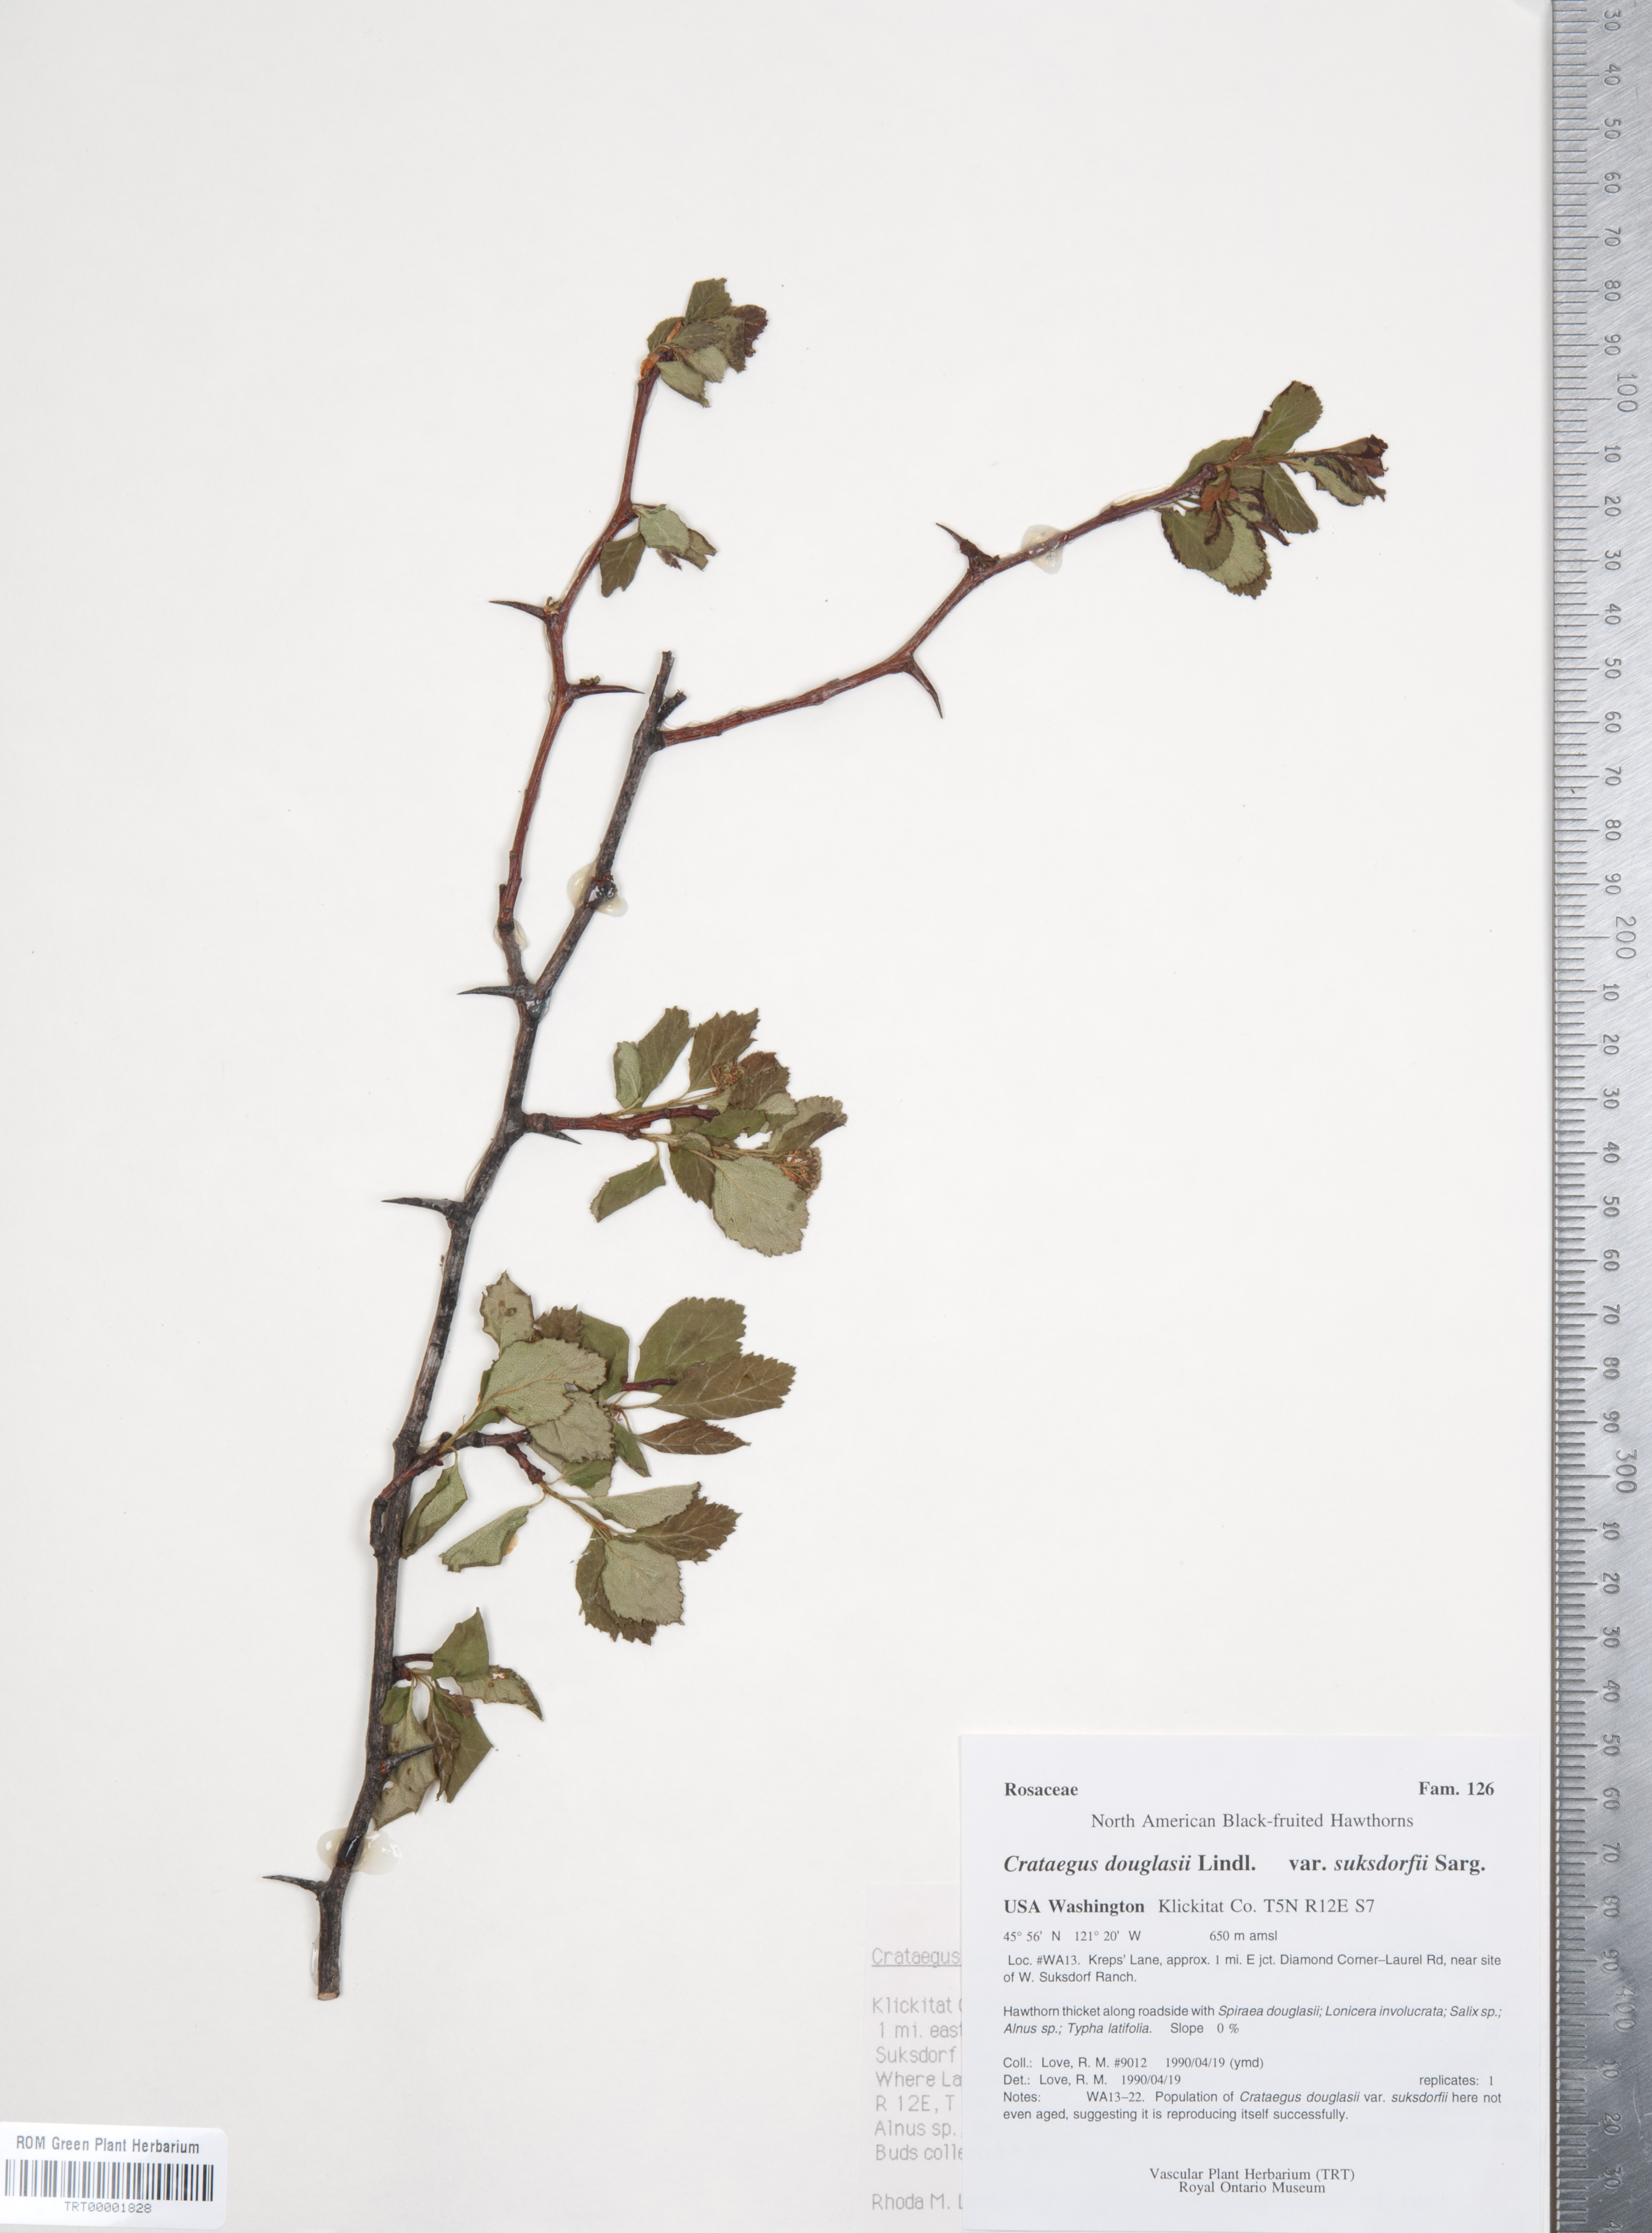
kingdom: Plantae
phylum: Tracheophyta
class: Magnoliopsida
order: Rosales
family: Rosaceae
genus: Crataegus
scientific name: Crataegus gaylussacia
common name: Huckleberry hawthorn
